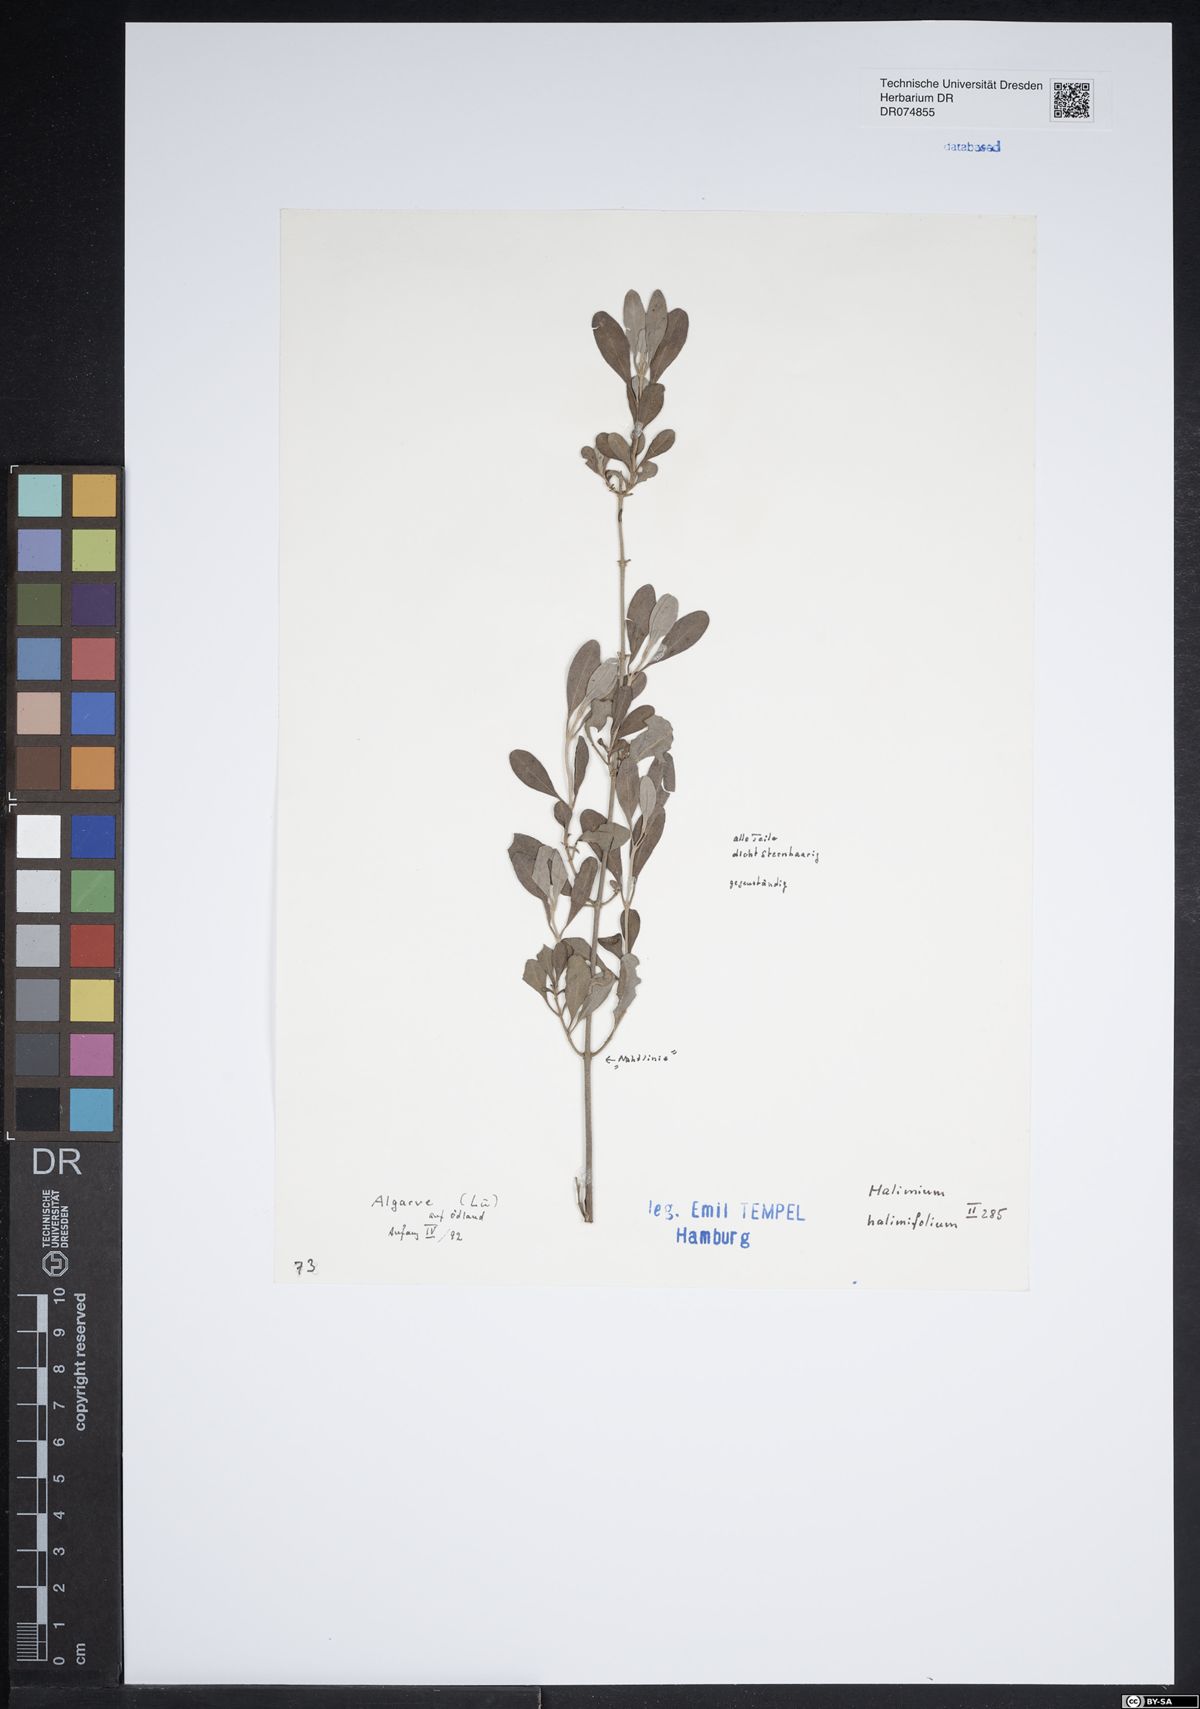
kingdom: Plantae
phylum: Tracheophyta
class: Magnoliopsida
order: Malvales
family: Cistaceae
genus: Halimium
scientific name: Halimium halimifolium
